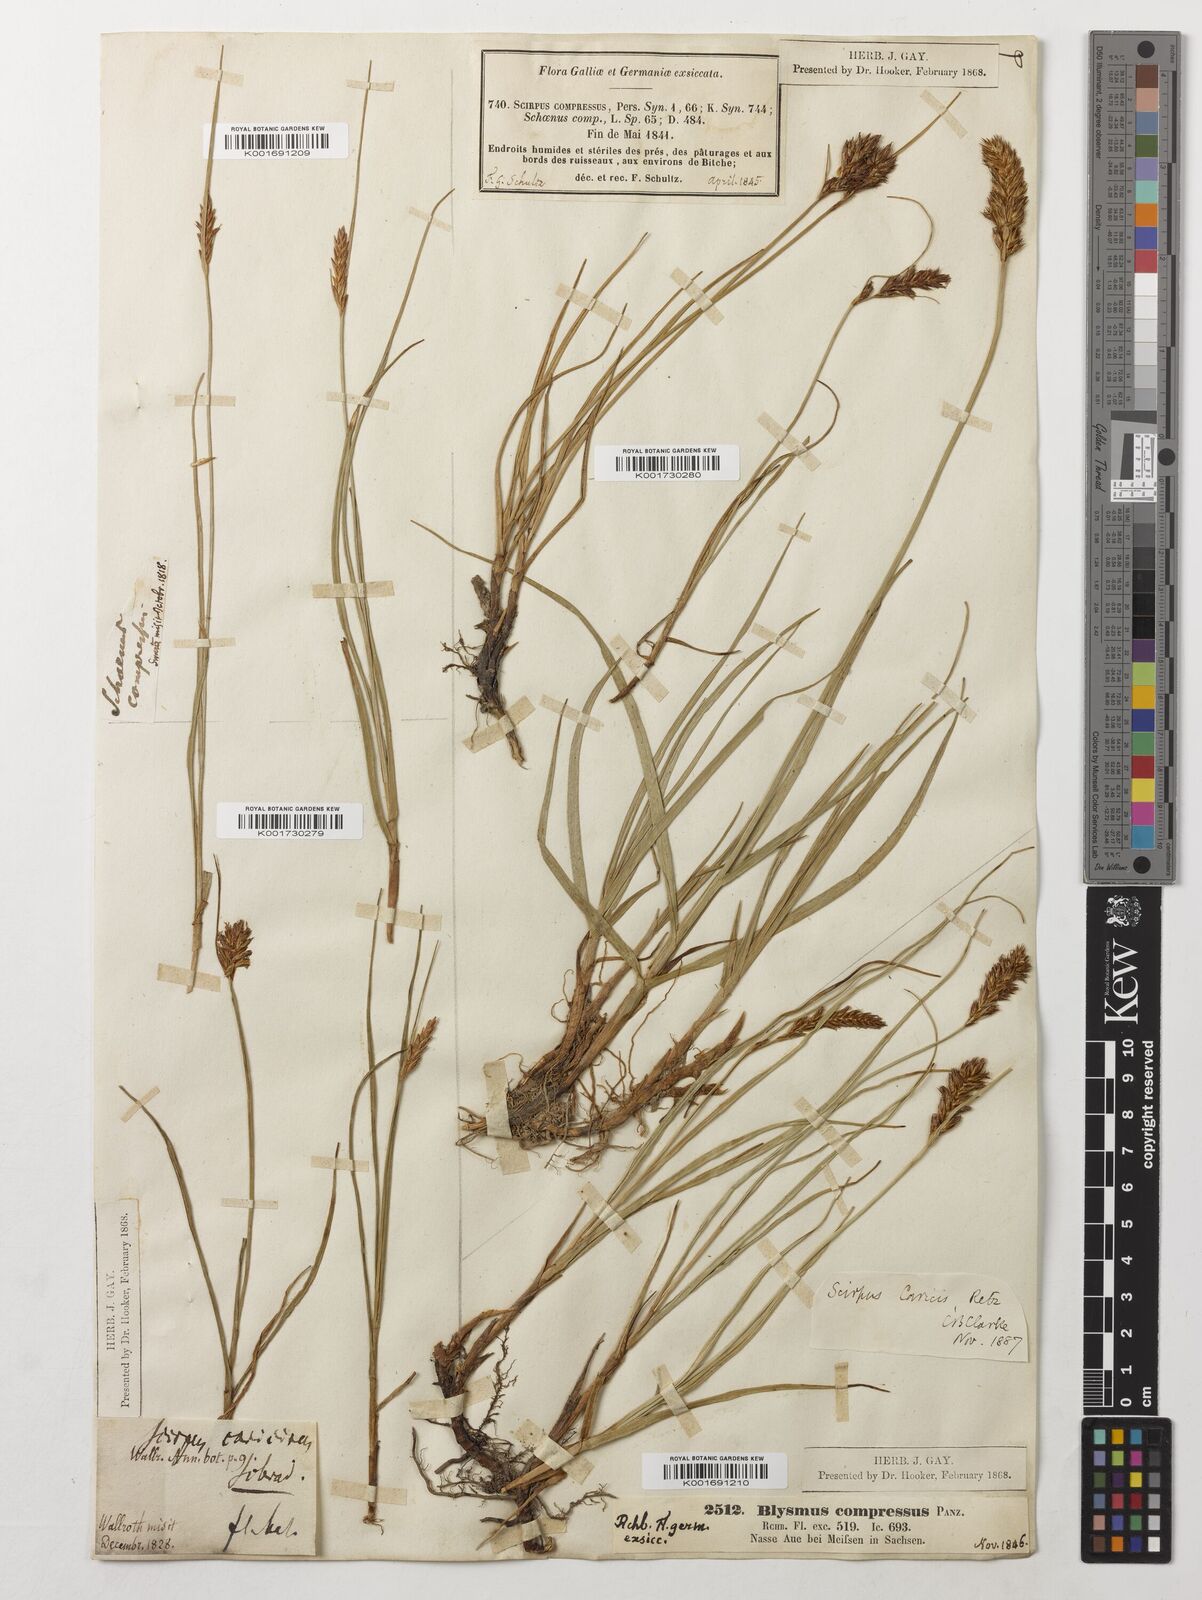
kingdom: Plantae
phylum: Tracheophyta
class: Liliopsida
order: Poales
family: Cyperaceae
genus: Blysmus
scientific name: Blysmus compressus
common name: Flat-sedge
